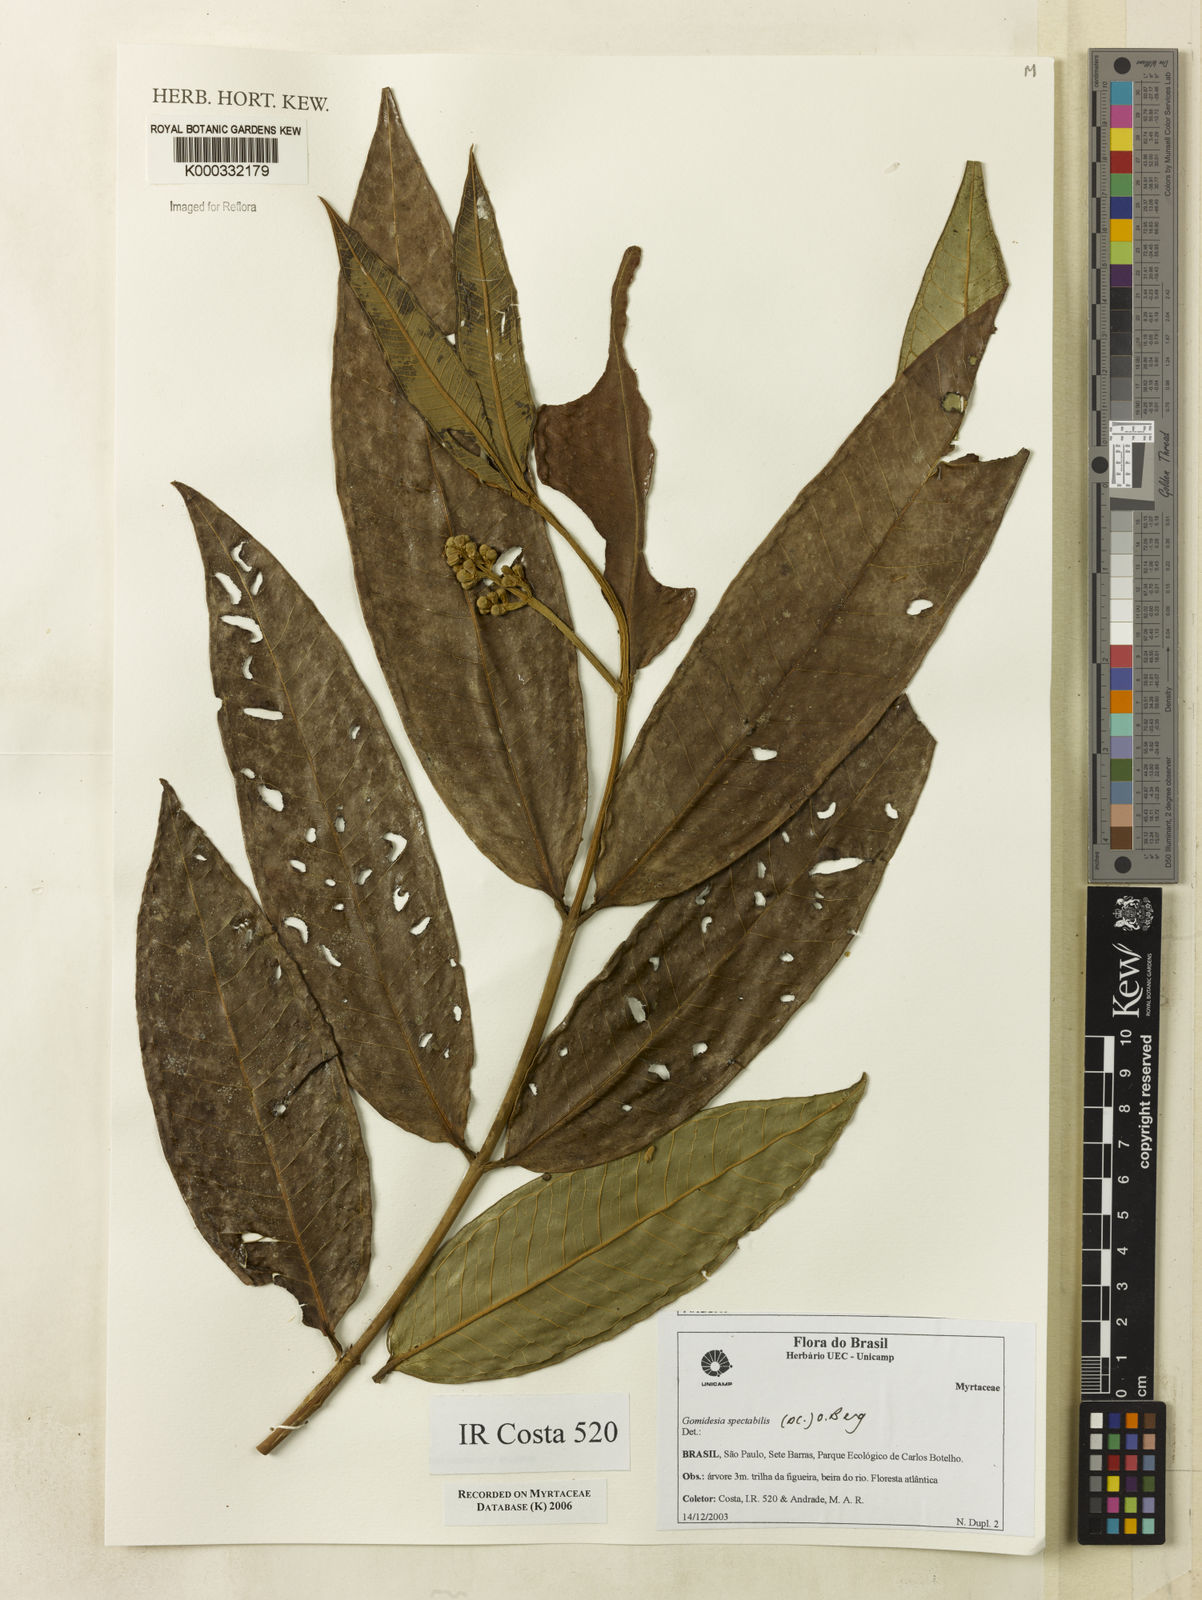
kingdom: Plantae
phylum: Tracheophyta
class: Magnoliopsida
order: Myrtales
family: Myrtaceae
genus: Myrcia
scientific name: Myrcia spectabilis
